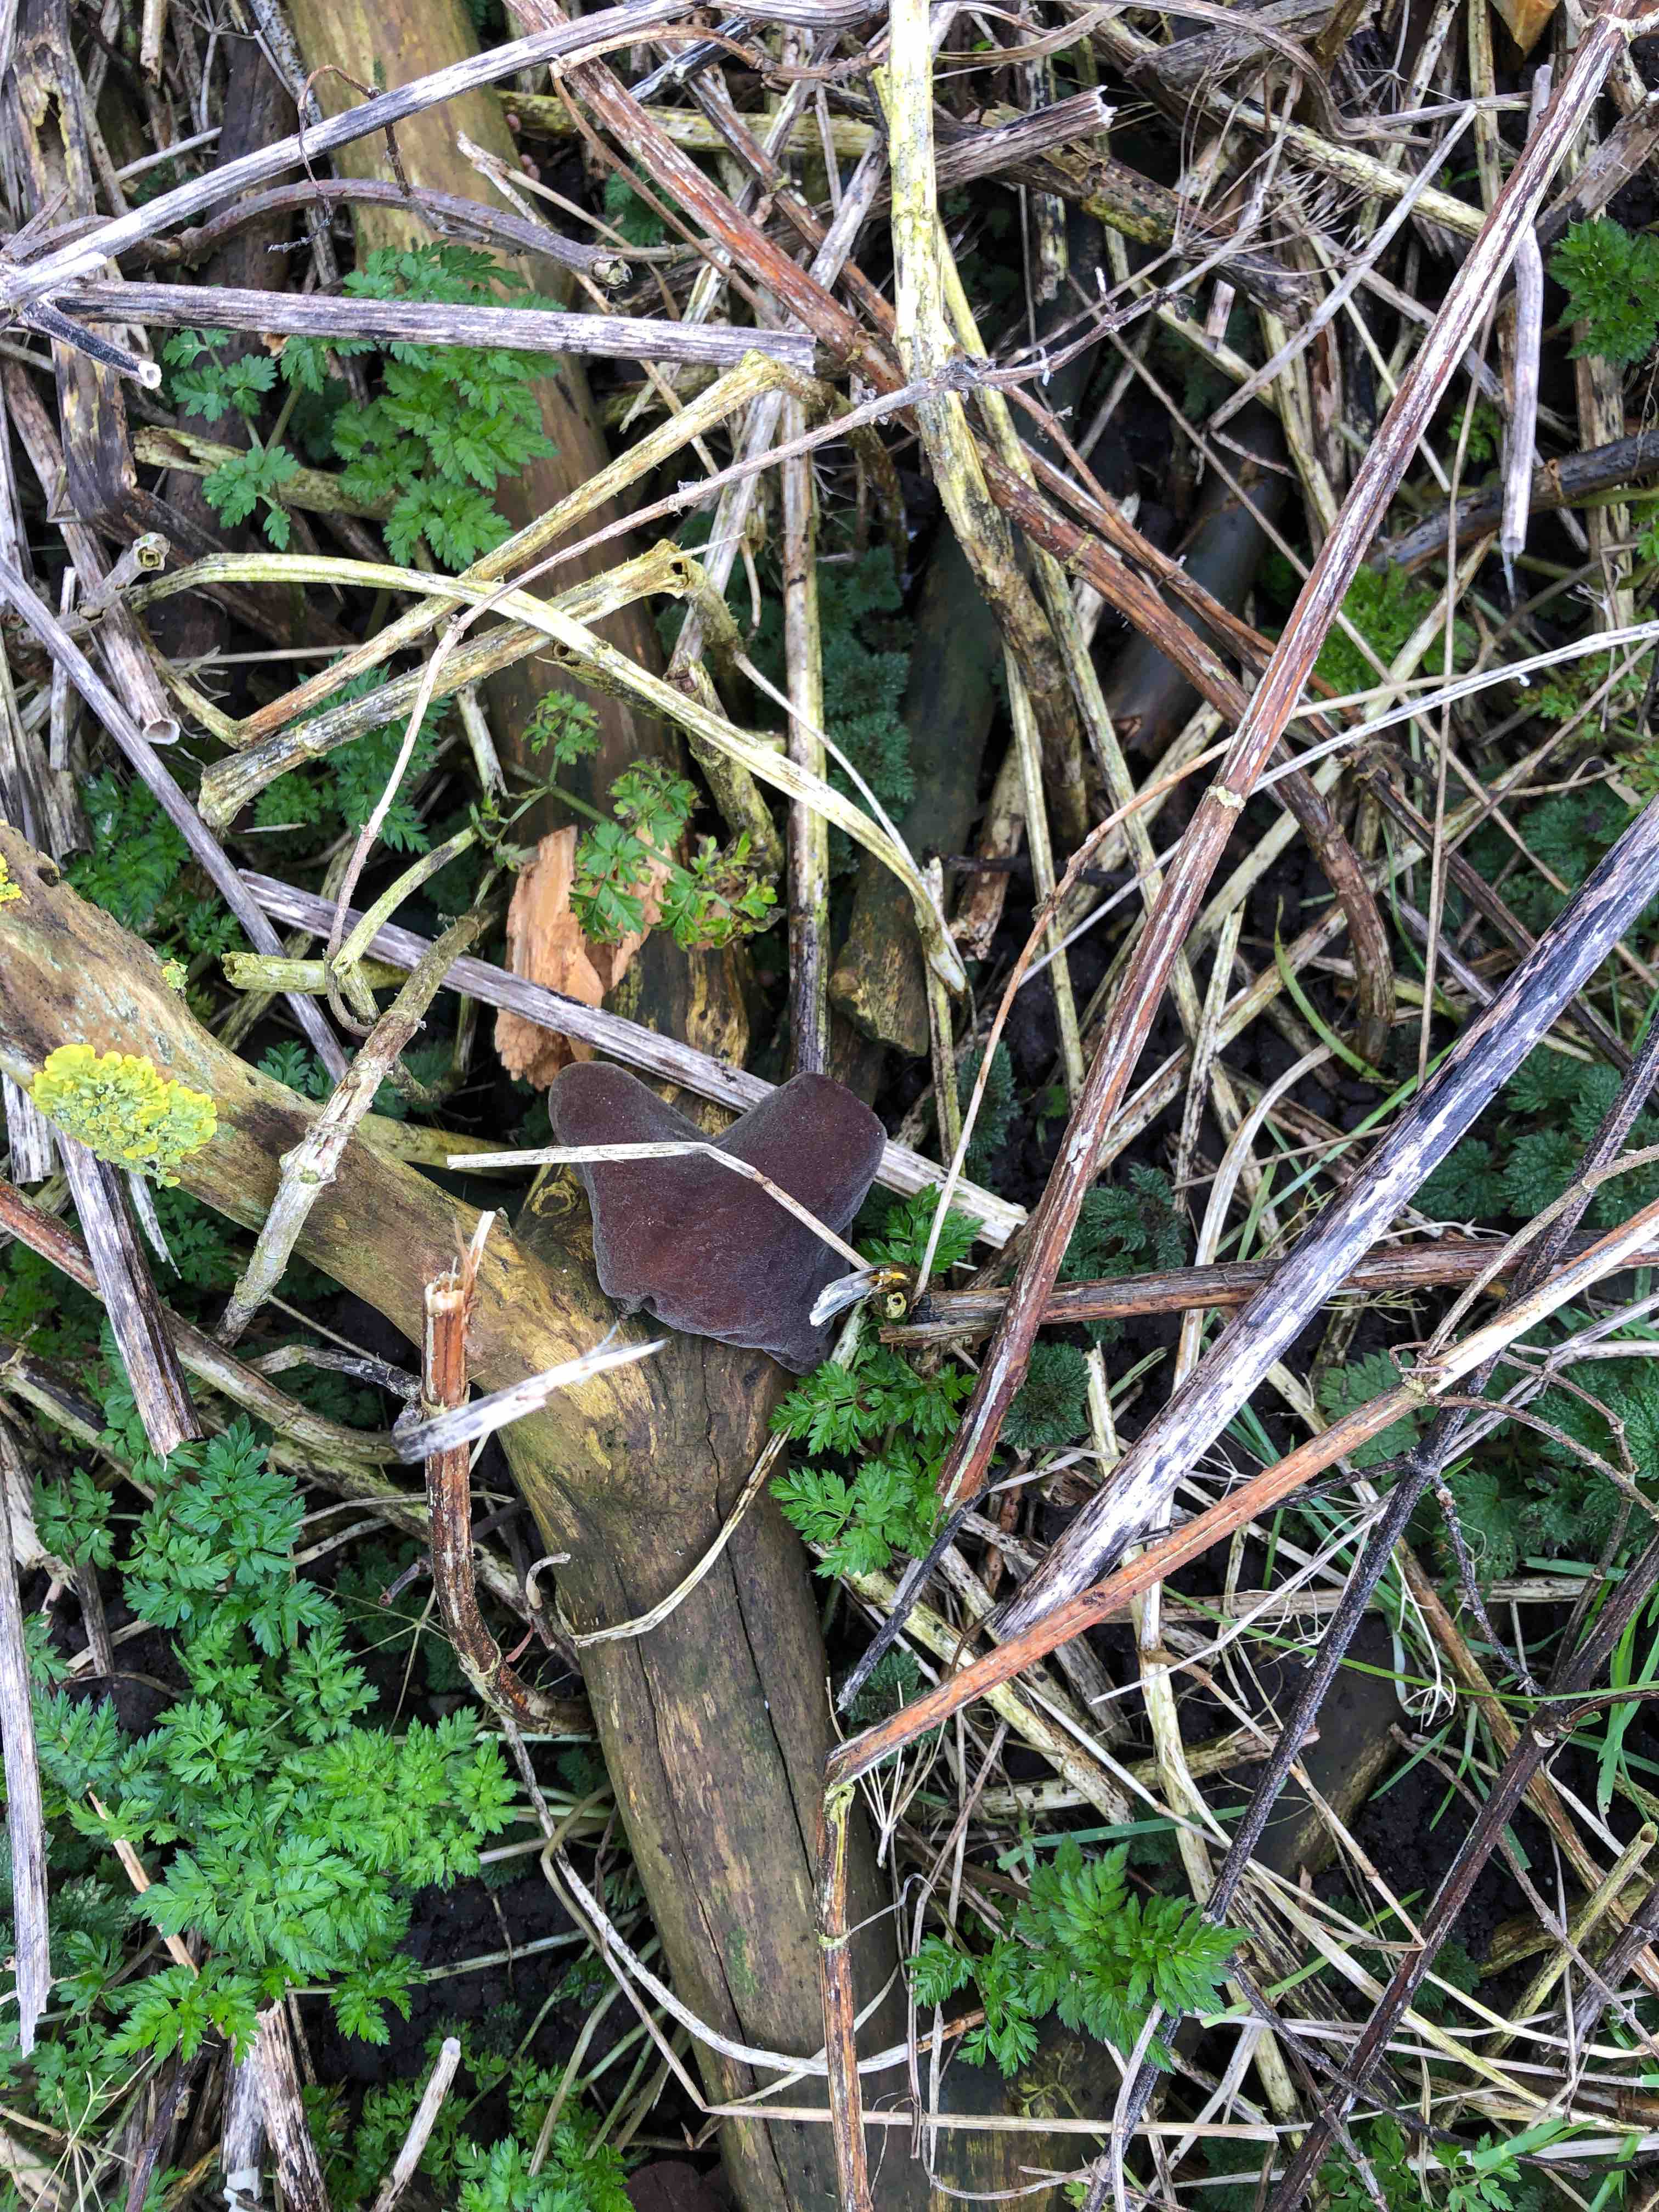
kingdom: Fungi
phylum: Basidiomycota
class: Agaricomycetes
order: Auriculariales
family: Auriculariaceae
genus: Auricularia
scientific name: Auricularia auricula-judae
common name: almindelig judasøre
